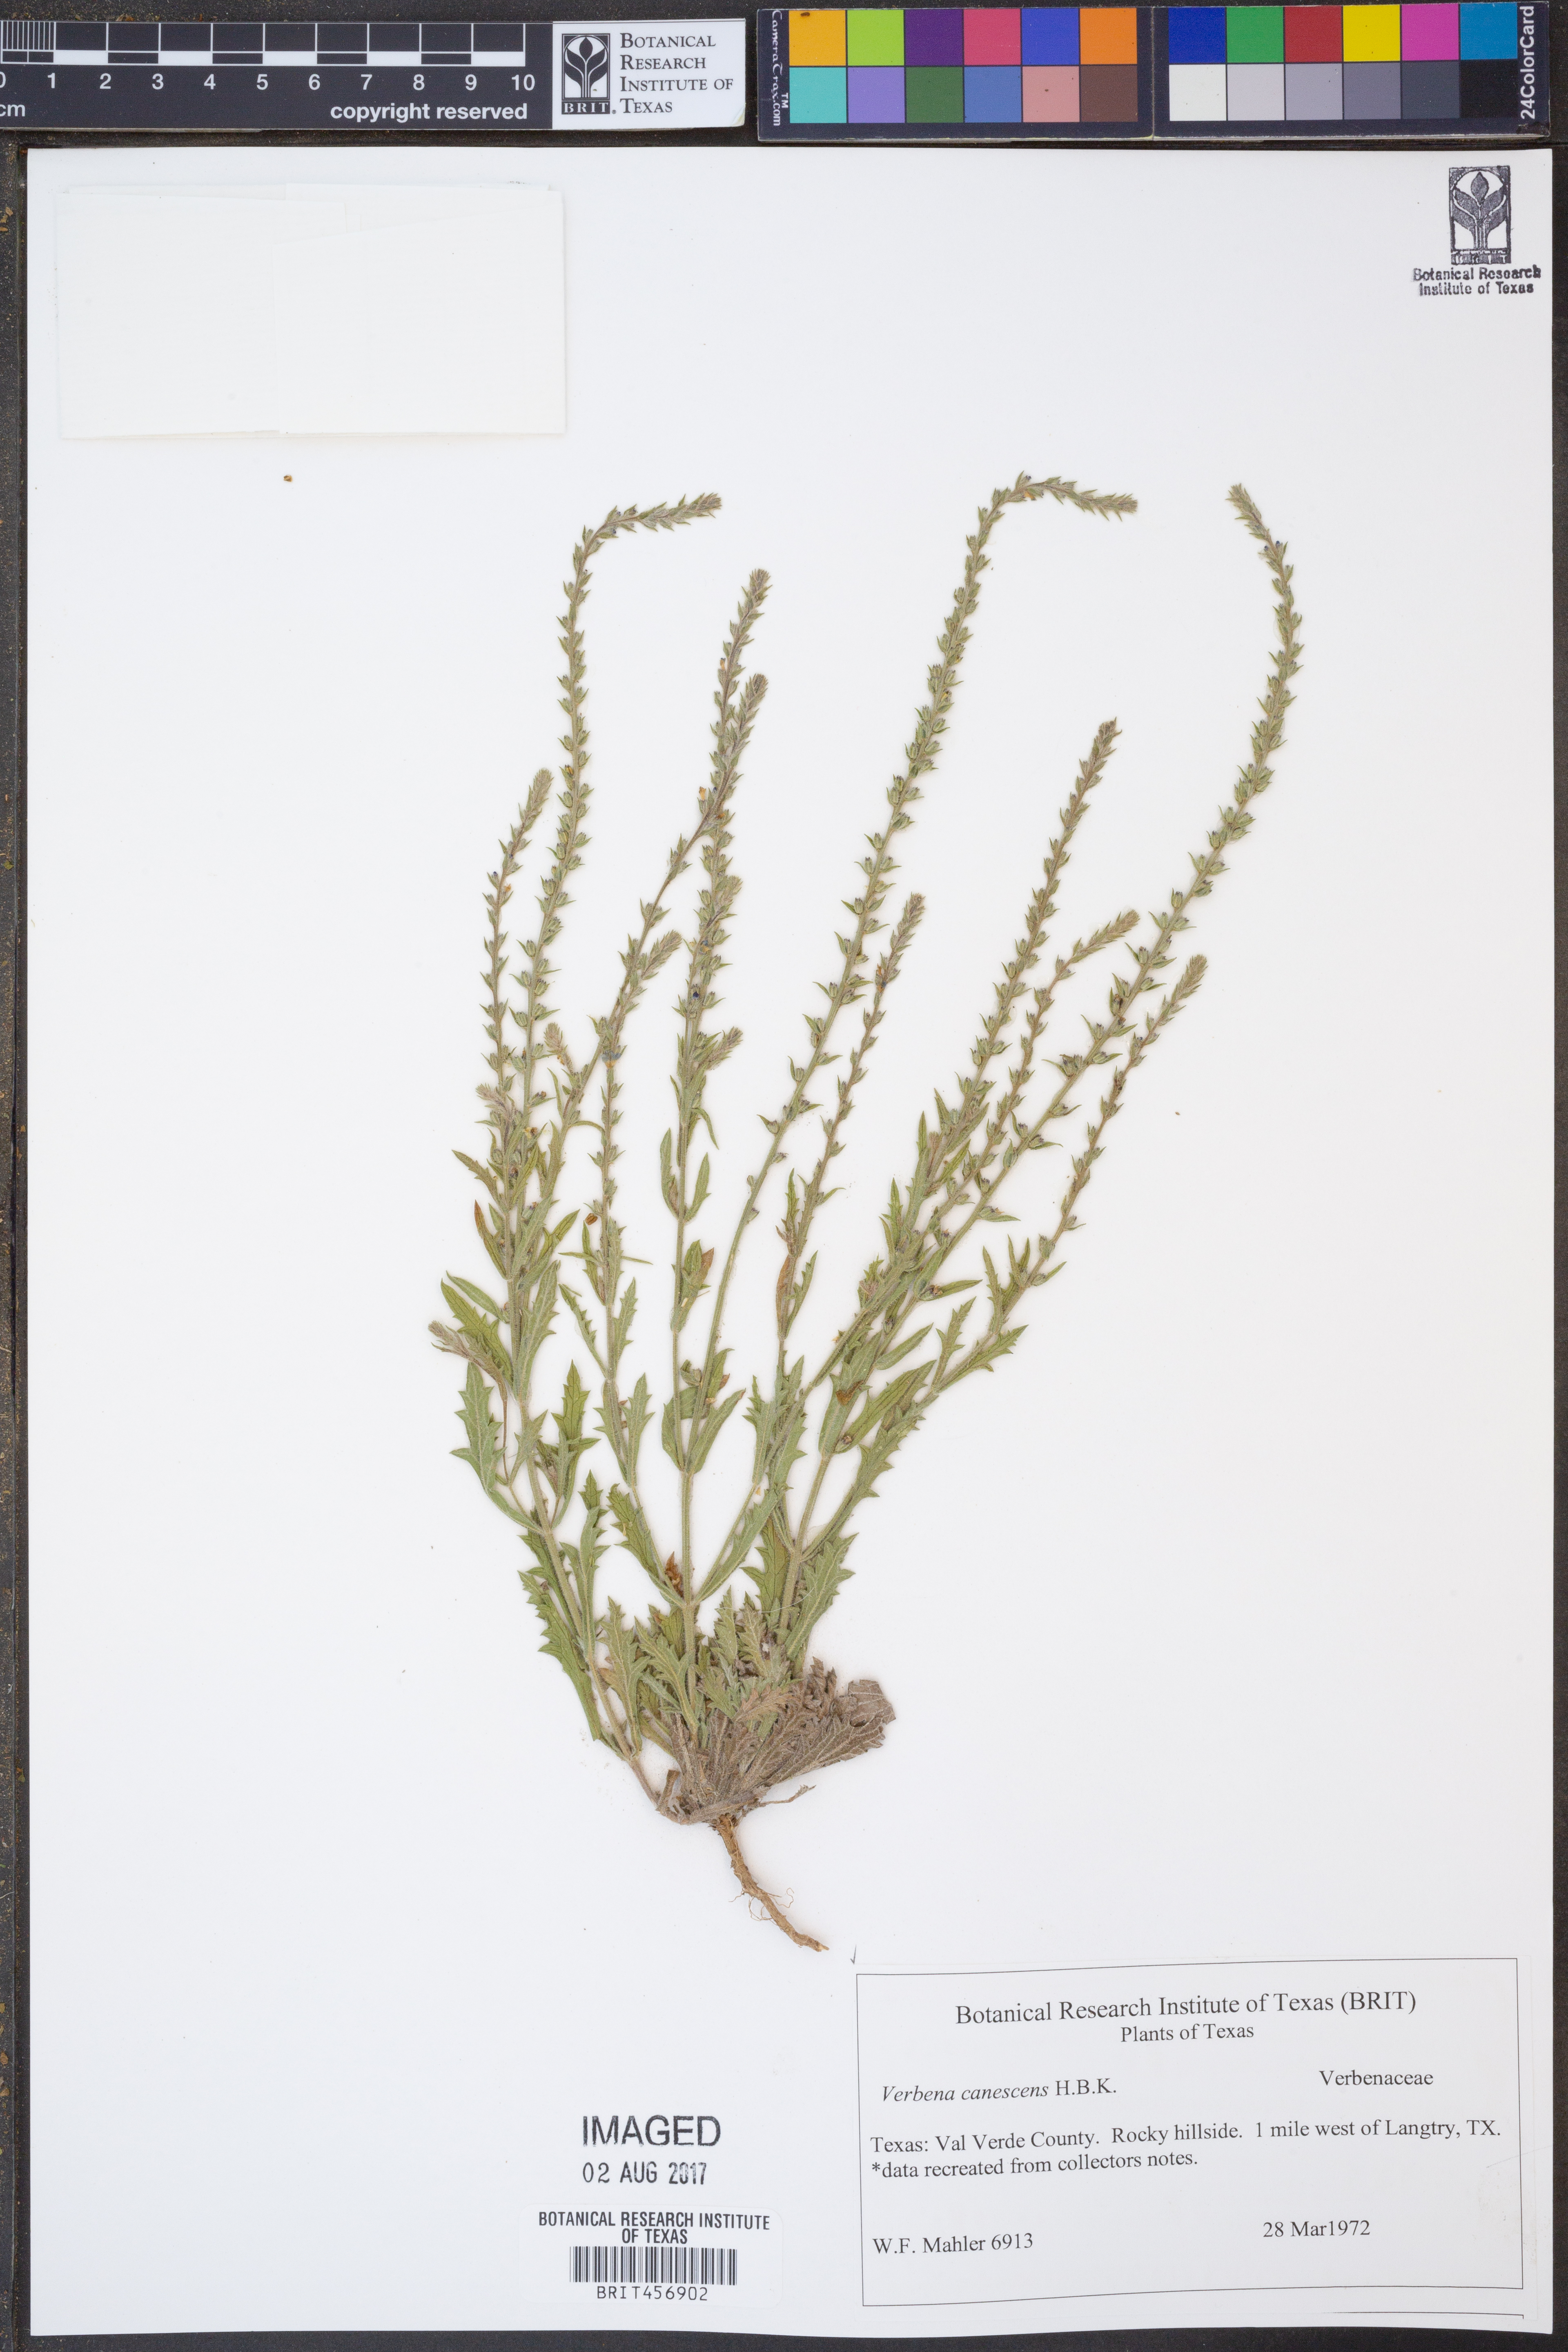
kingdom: Plantae
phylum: Tracheophyta
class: Magnoliopsida
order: Lamiales
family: Verbenaceae
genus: Verbena
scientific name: Verbena canescens
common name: Gray vervain
